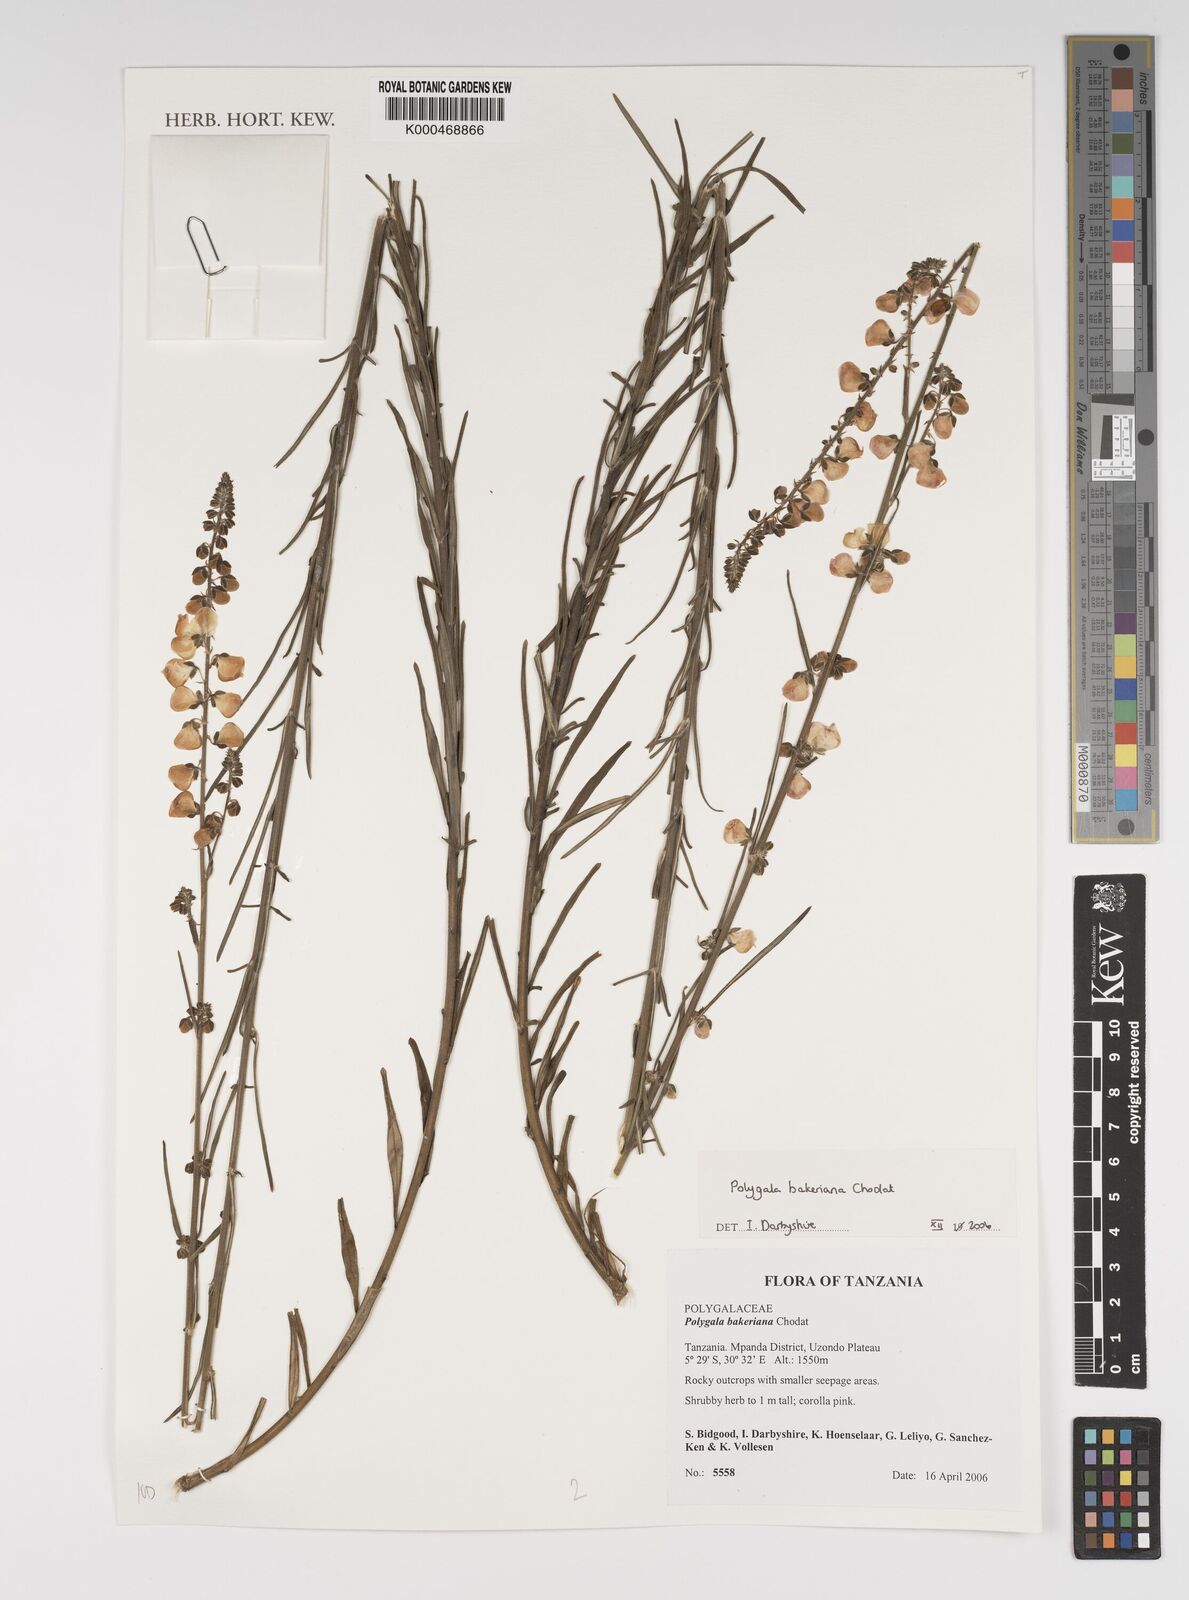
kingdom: Plantae
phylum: Tracheophyta
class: Magnoliopsida
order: Fabales
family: Polygalaceae
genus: Polygala
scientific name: Polygala bakeriana
